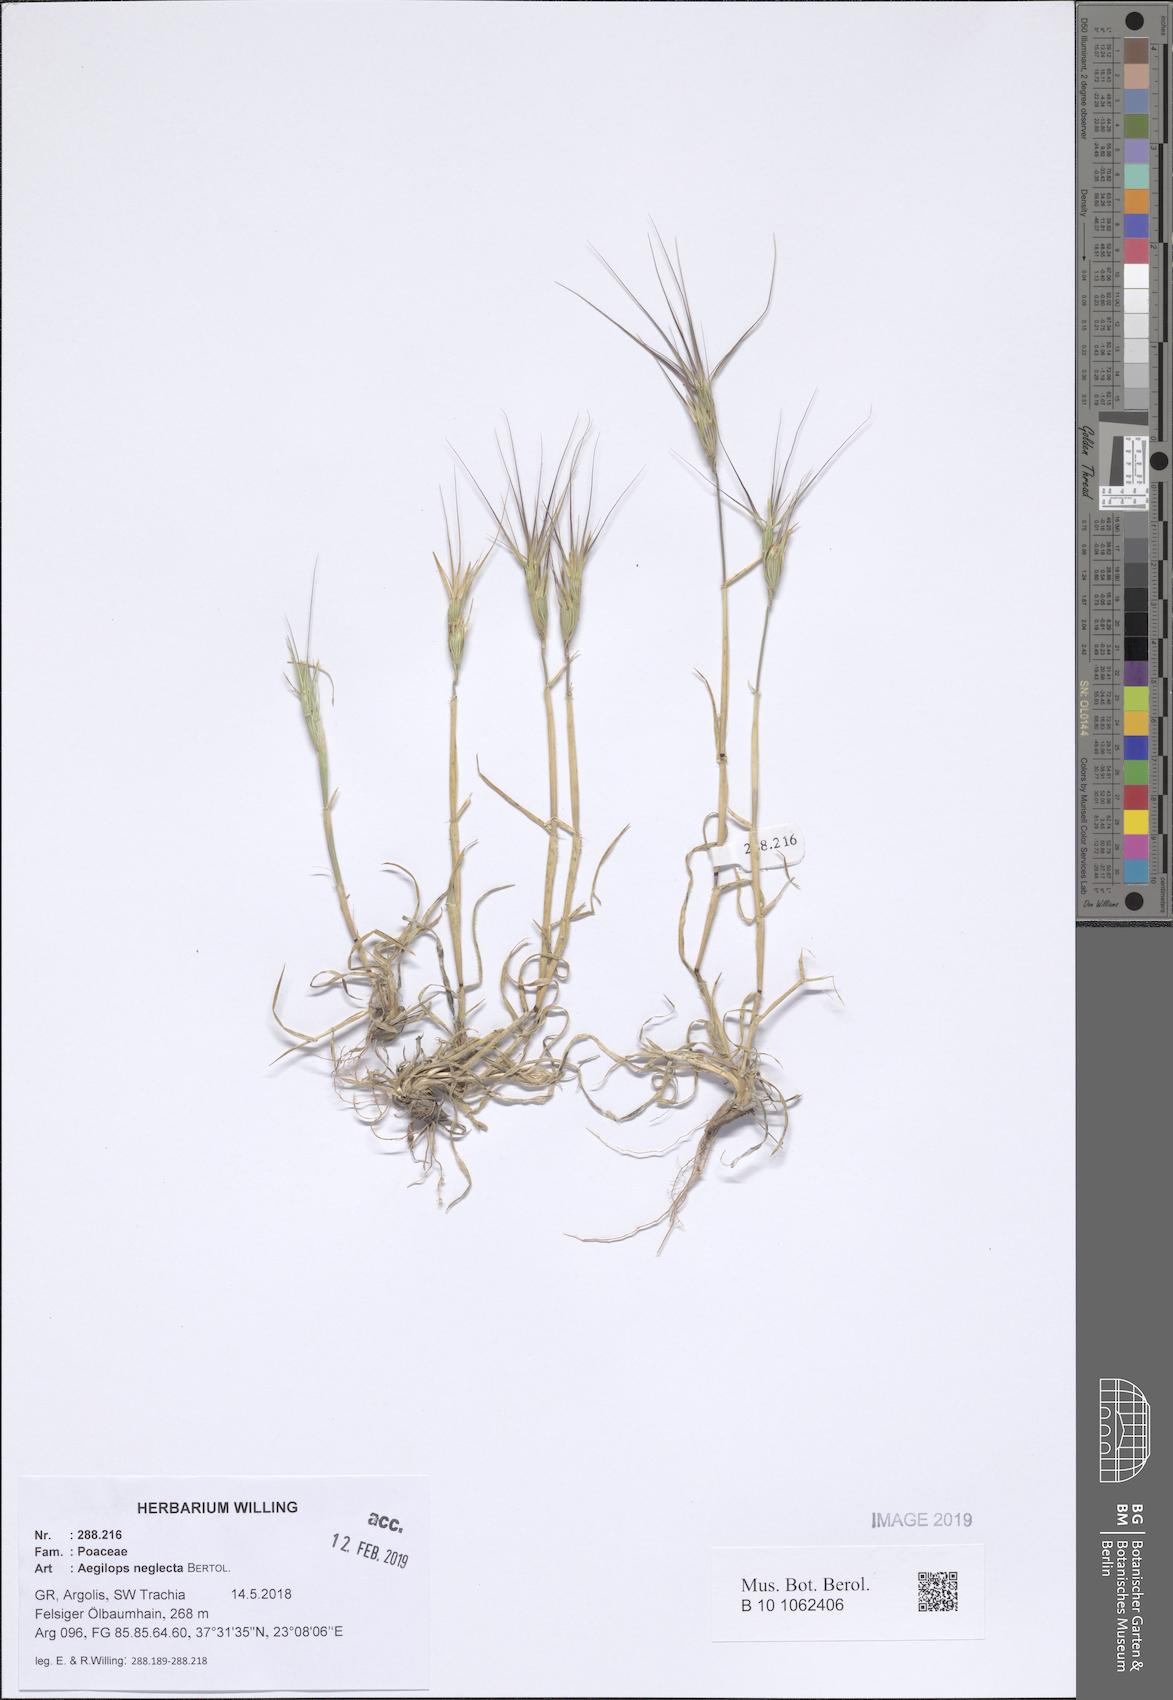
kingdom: Plantae
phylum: Tracheophyta
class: Liliopsida
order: Poales
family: Poaceae
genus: Aegilops
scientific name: Aegilops neglecta
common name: Three-awn goat grass
